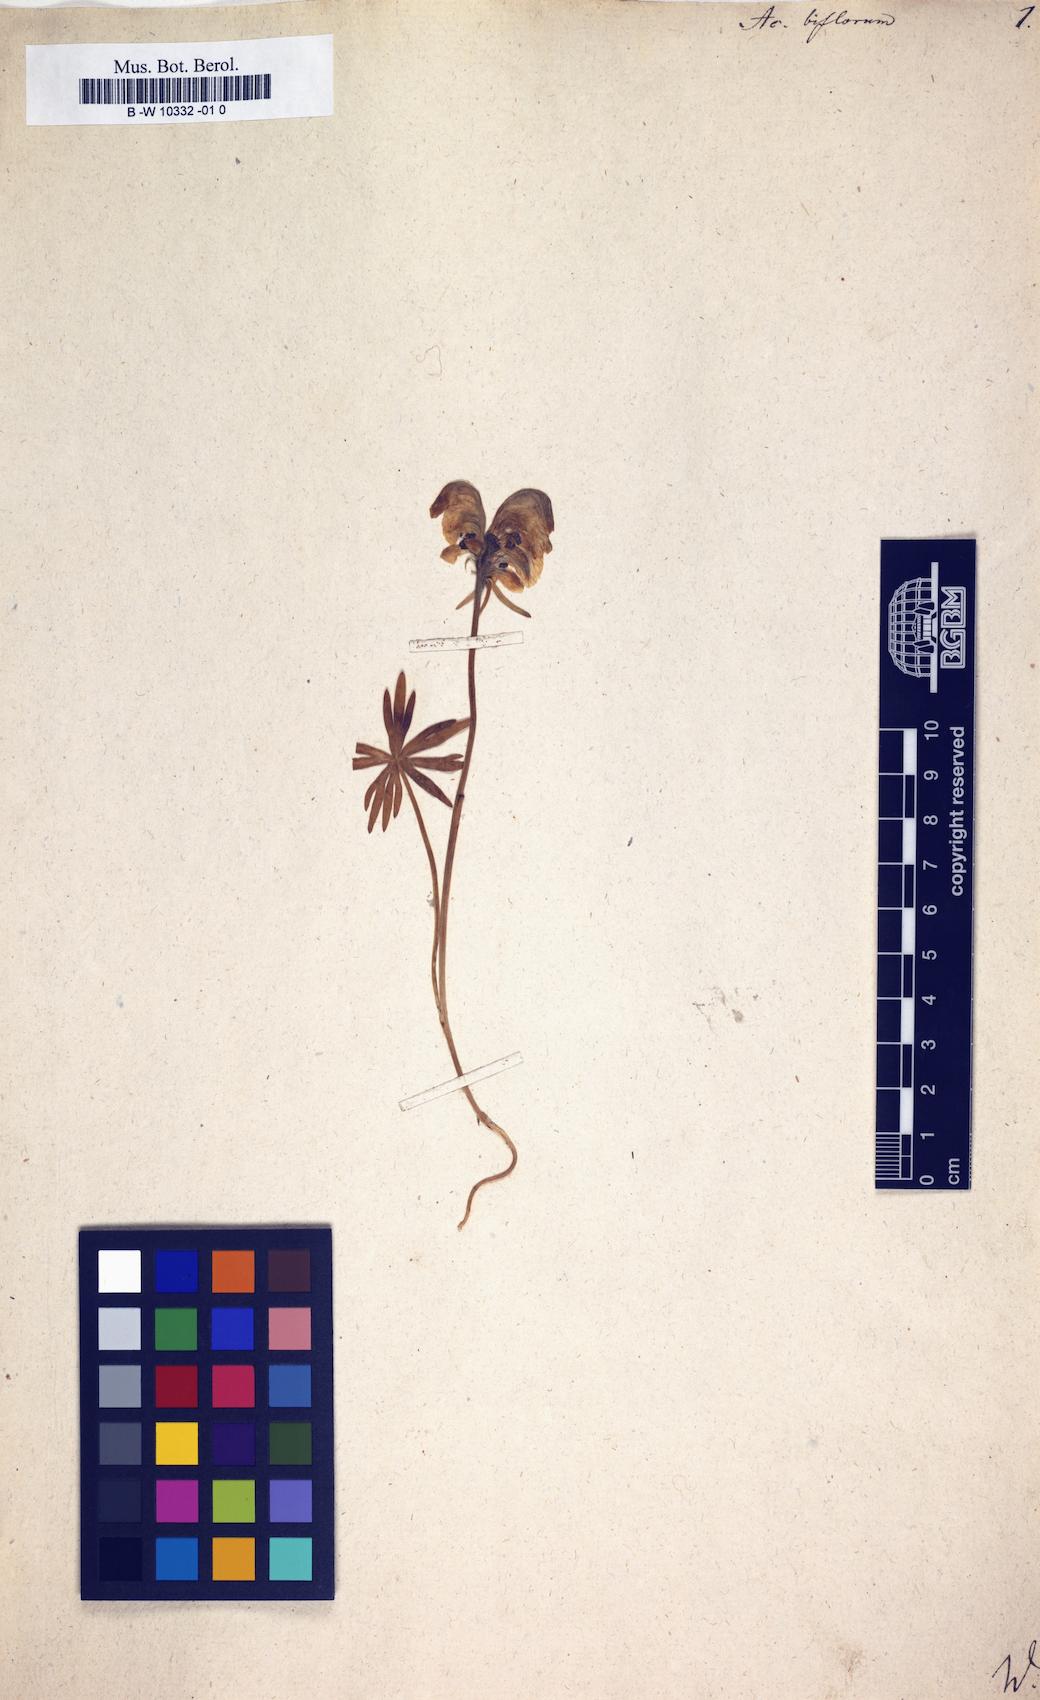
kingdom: Plantae
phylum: Tracheophyta
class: Magnoliopsida
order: Ranunculales
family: Ranunculaceae
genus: Aconitum
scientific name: Aconitum biflorum
